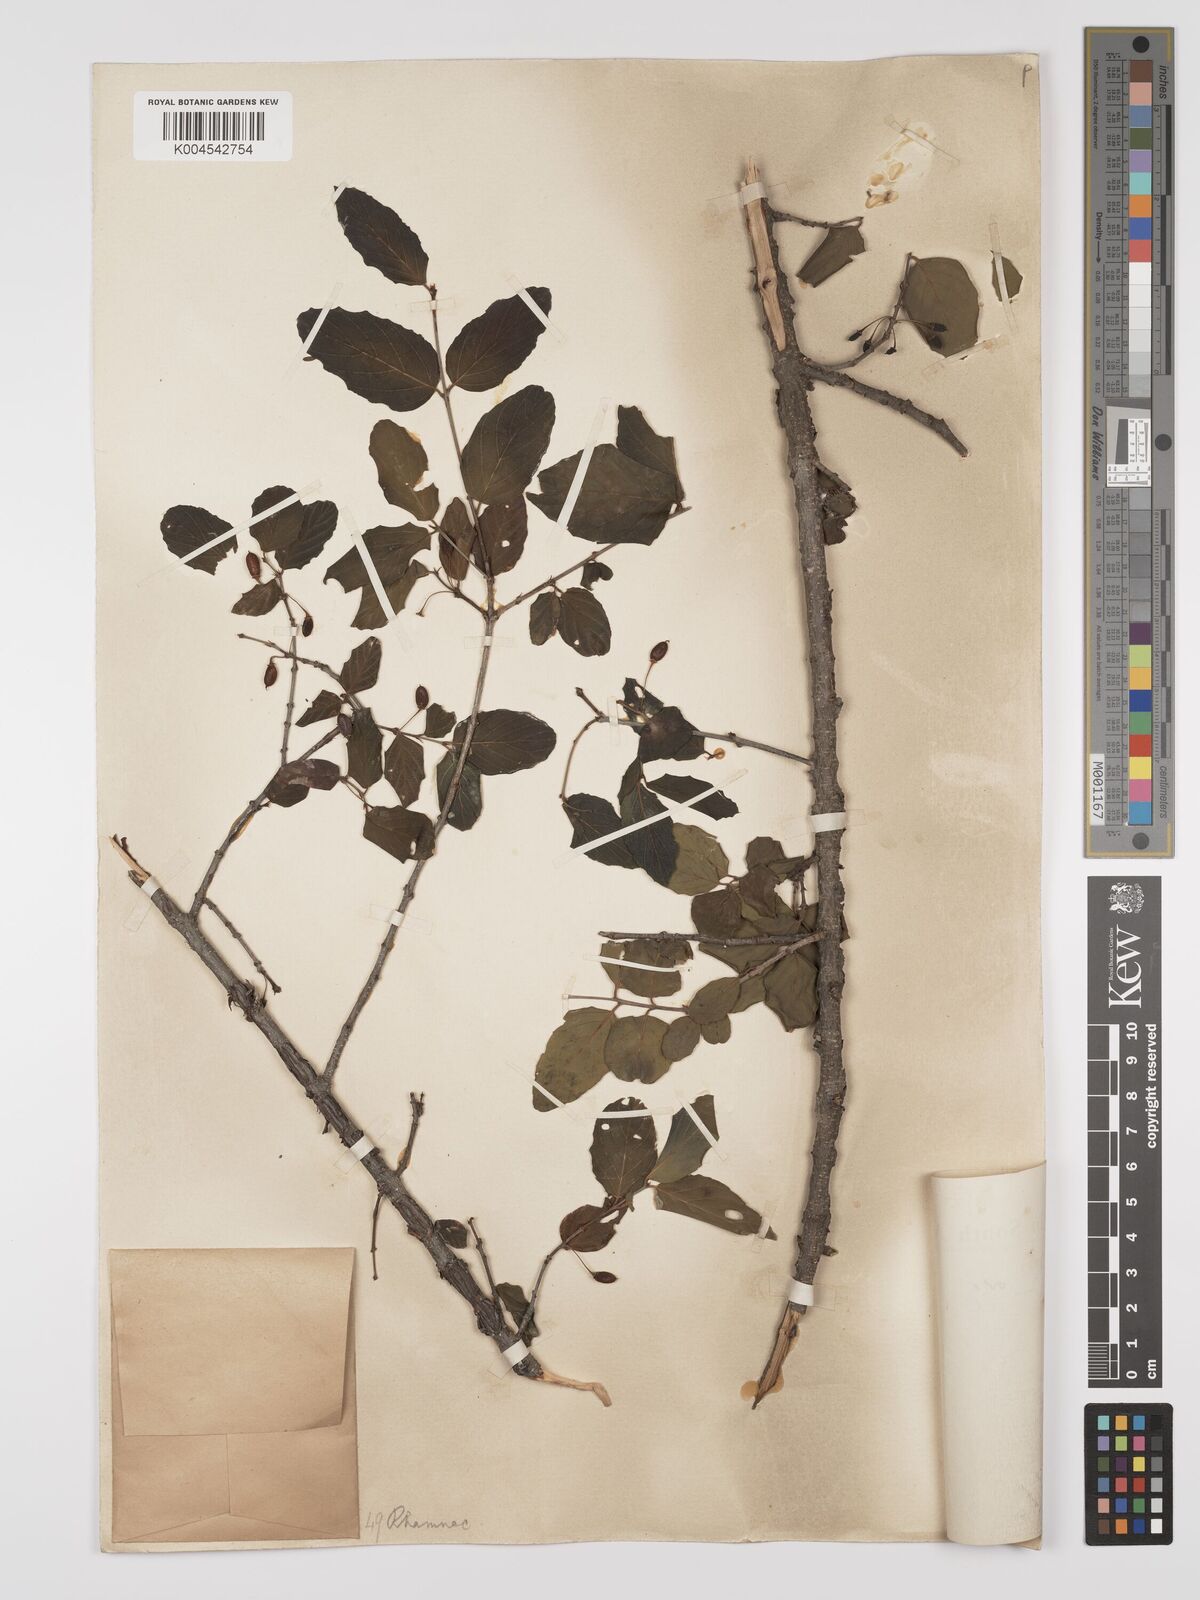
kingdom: Plantae
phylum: Tracheophyta
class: Magnoliopsida
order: Rosales
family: Rhamnaceae
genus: Phyllogeiton
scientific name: Phyllogeiton zeyheri
